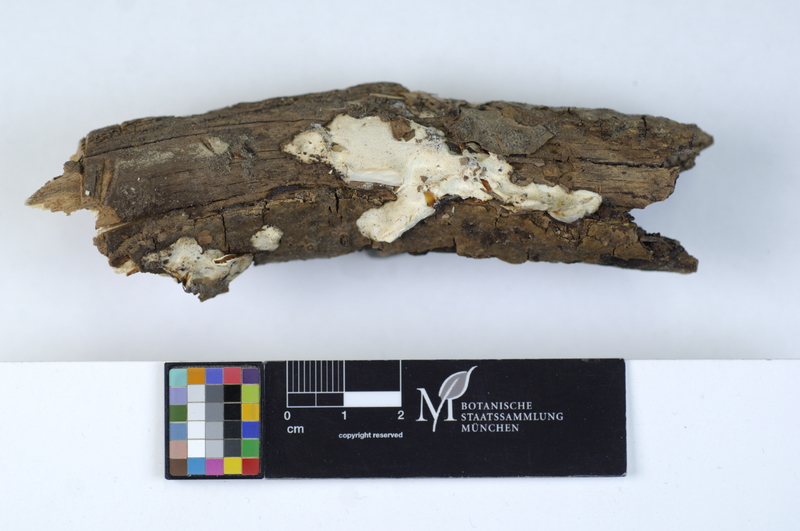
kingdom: Fungi
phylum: Basidiomycota
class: Agaricomycetes
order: Polyporales
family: Incrustoporiaceae
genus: Skeletocutis
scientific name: Skeletocutis nivea
